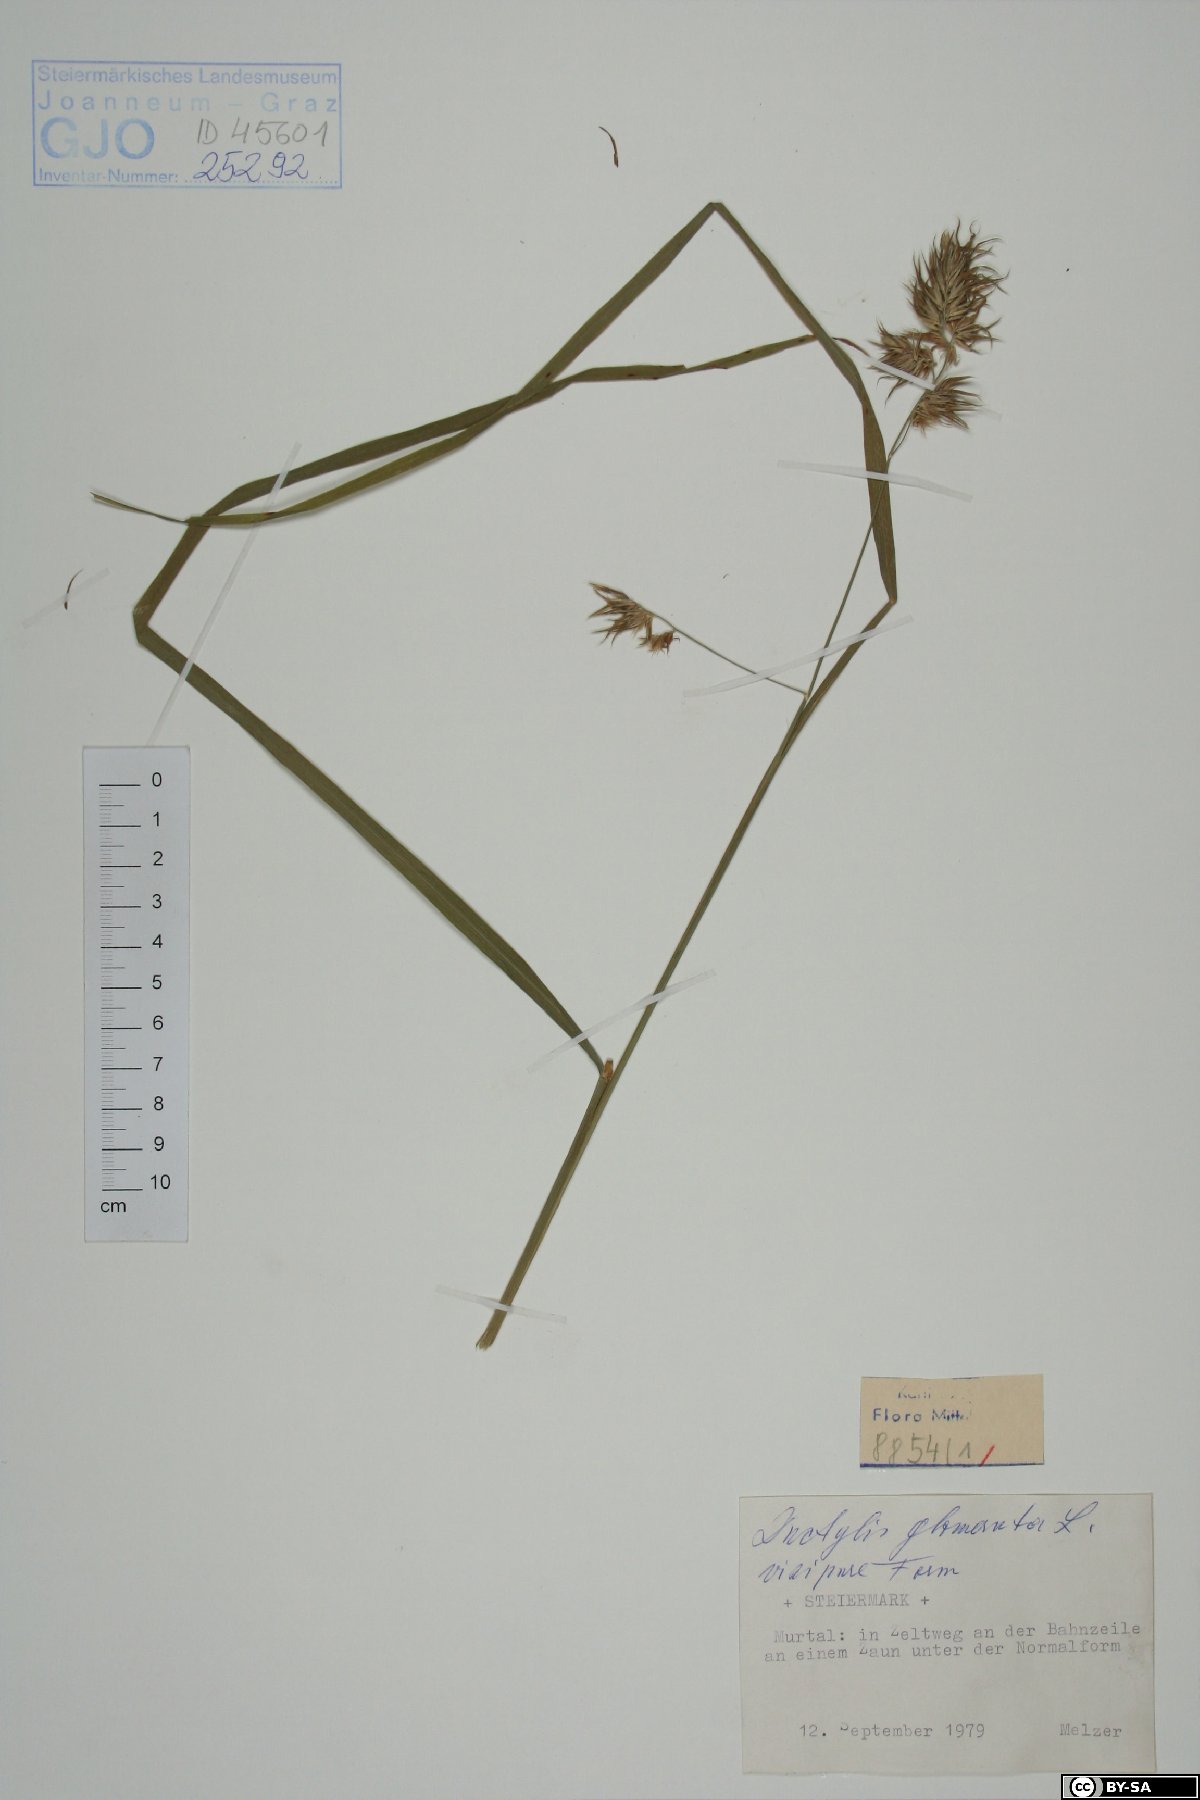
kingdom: Plantae
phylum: Tracheophyta
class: Liliopsida
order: Poales
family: Poaceae
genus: Dactylis
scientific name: Dactylis glomerata
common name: Orchardgrass
